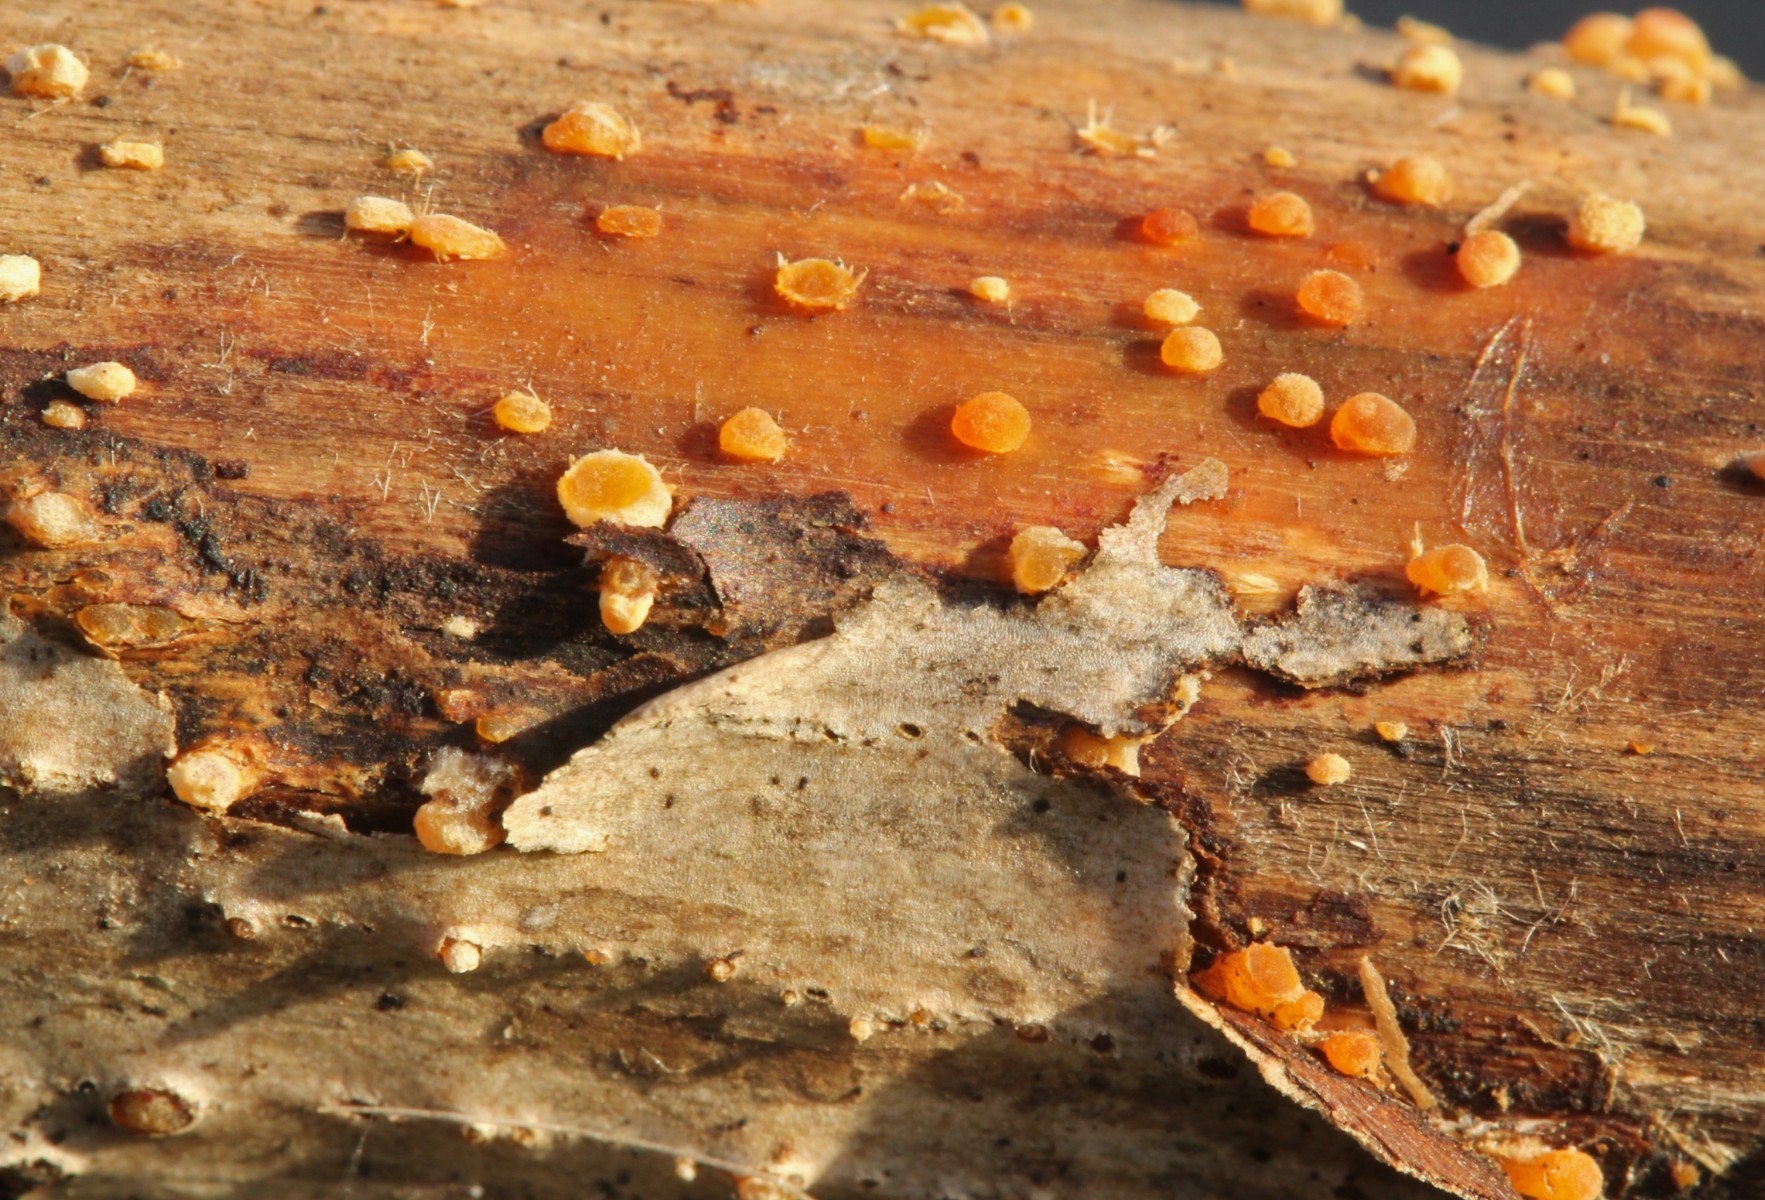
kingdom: Fungi
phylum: Basidiomycota
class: Dacrymycetes
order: Dacrymycetales
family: Dacrymycetaceae
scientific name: Dacrymycetaceae
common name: tåresvampfamilien
